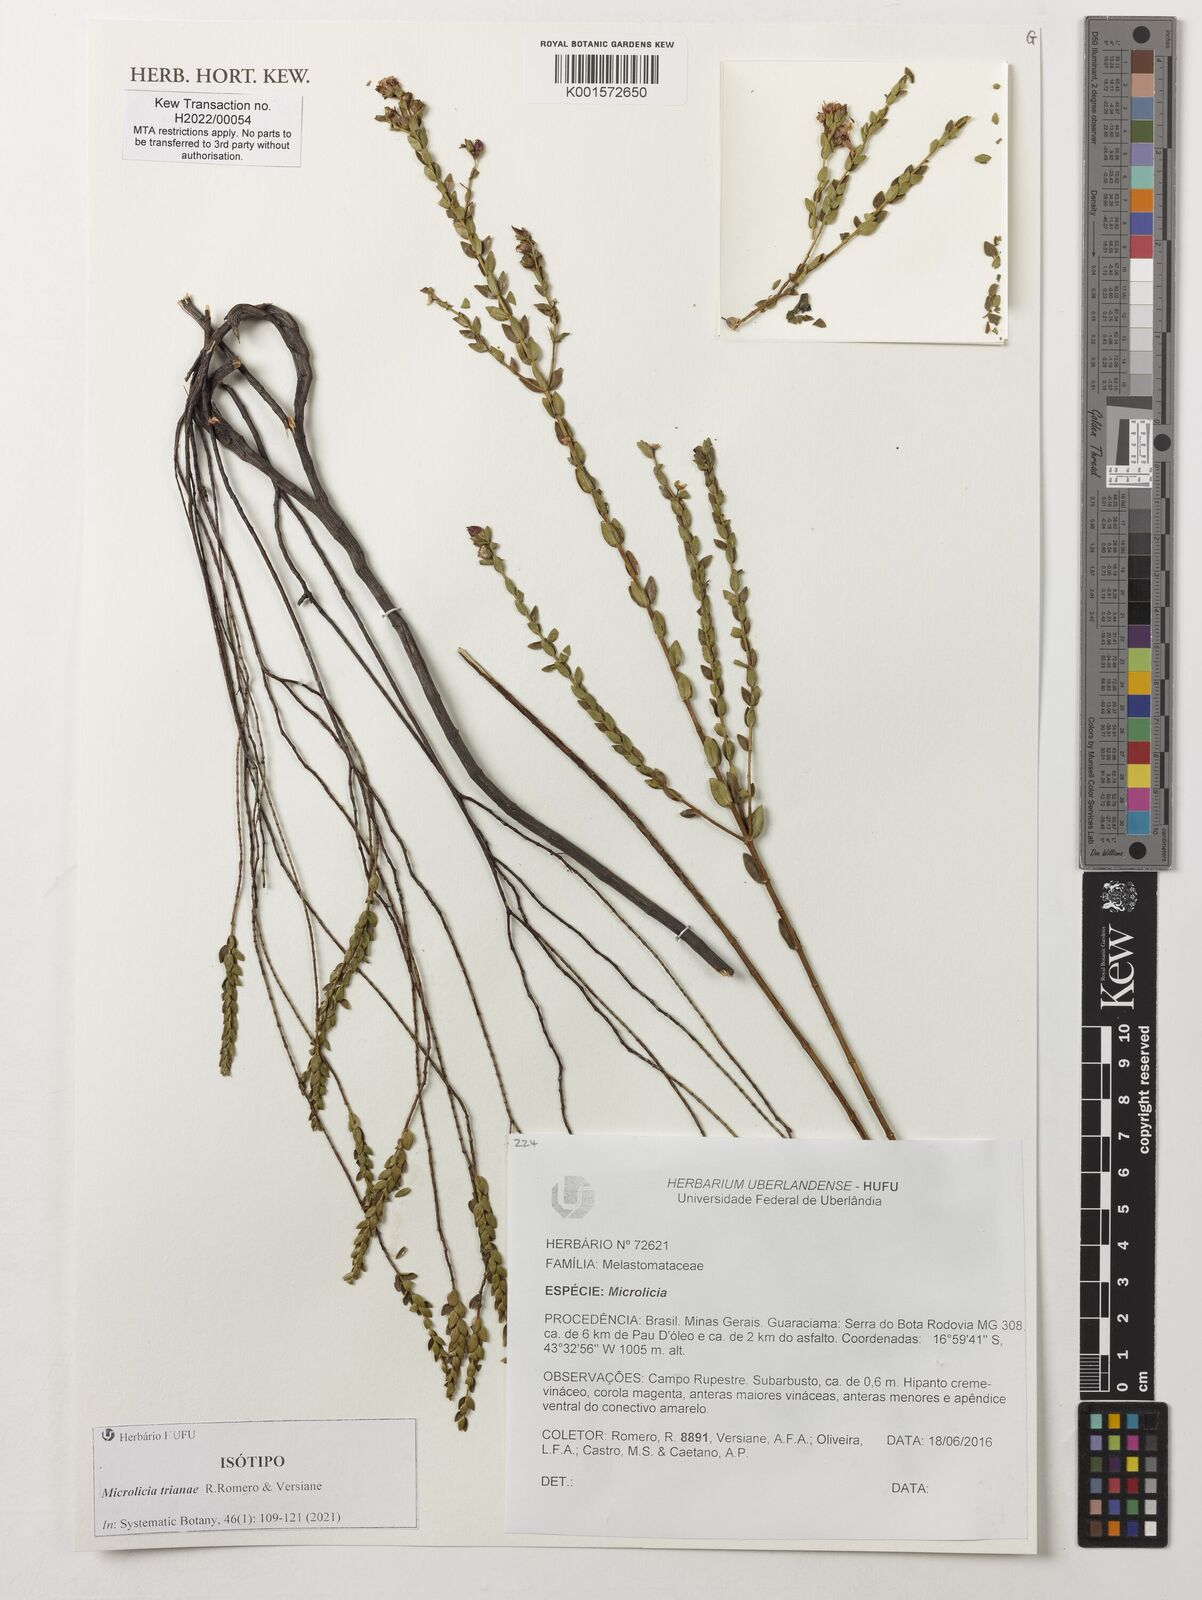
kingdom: Plantae
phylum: Tracheophyta
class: Magnoliopsida
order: Myrtales
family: Melastomataceae
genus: Microlicia
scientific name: Microlicia
